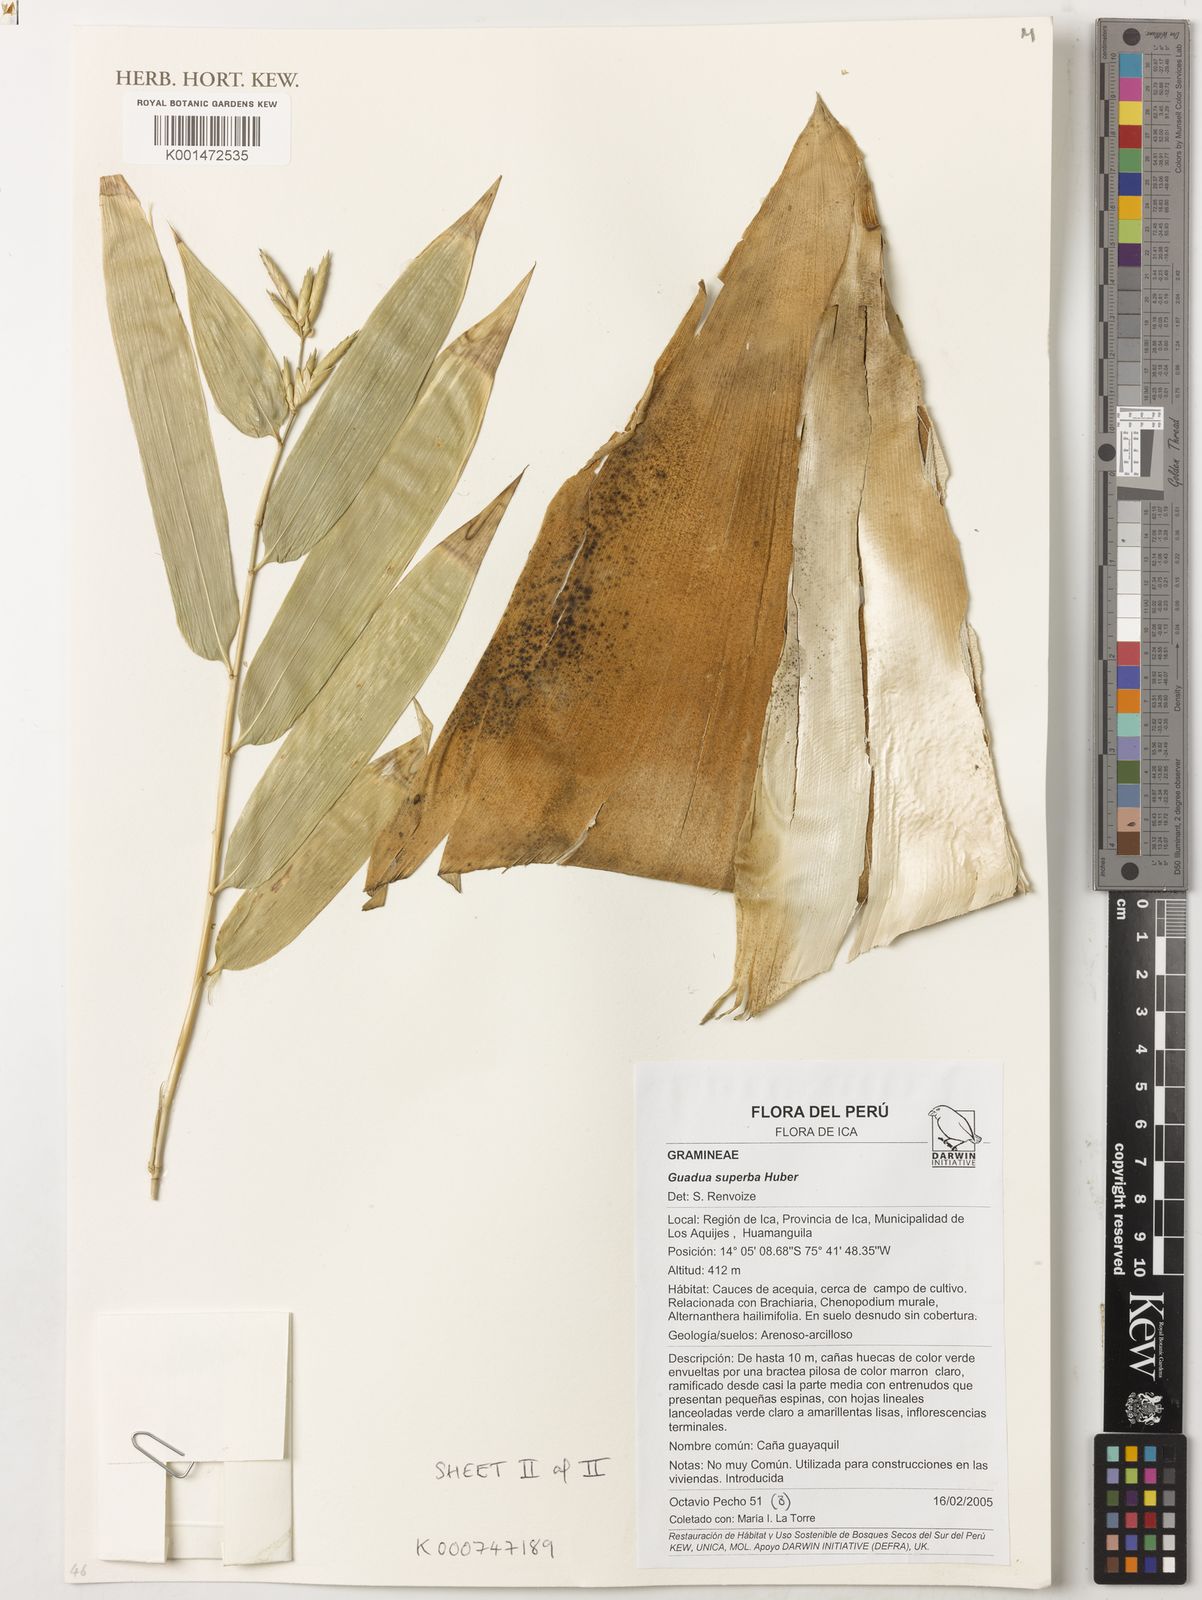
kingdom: Plantae
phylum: Tracheophyta
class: Liliopsida
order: Poales
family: Poaceae
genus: Guadua
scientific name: Guadua angustifolia
